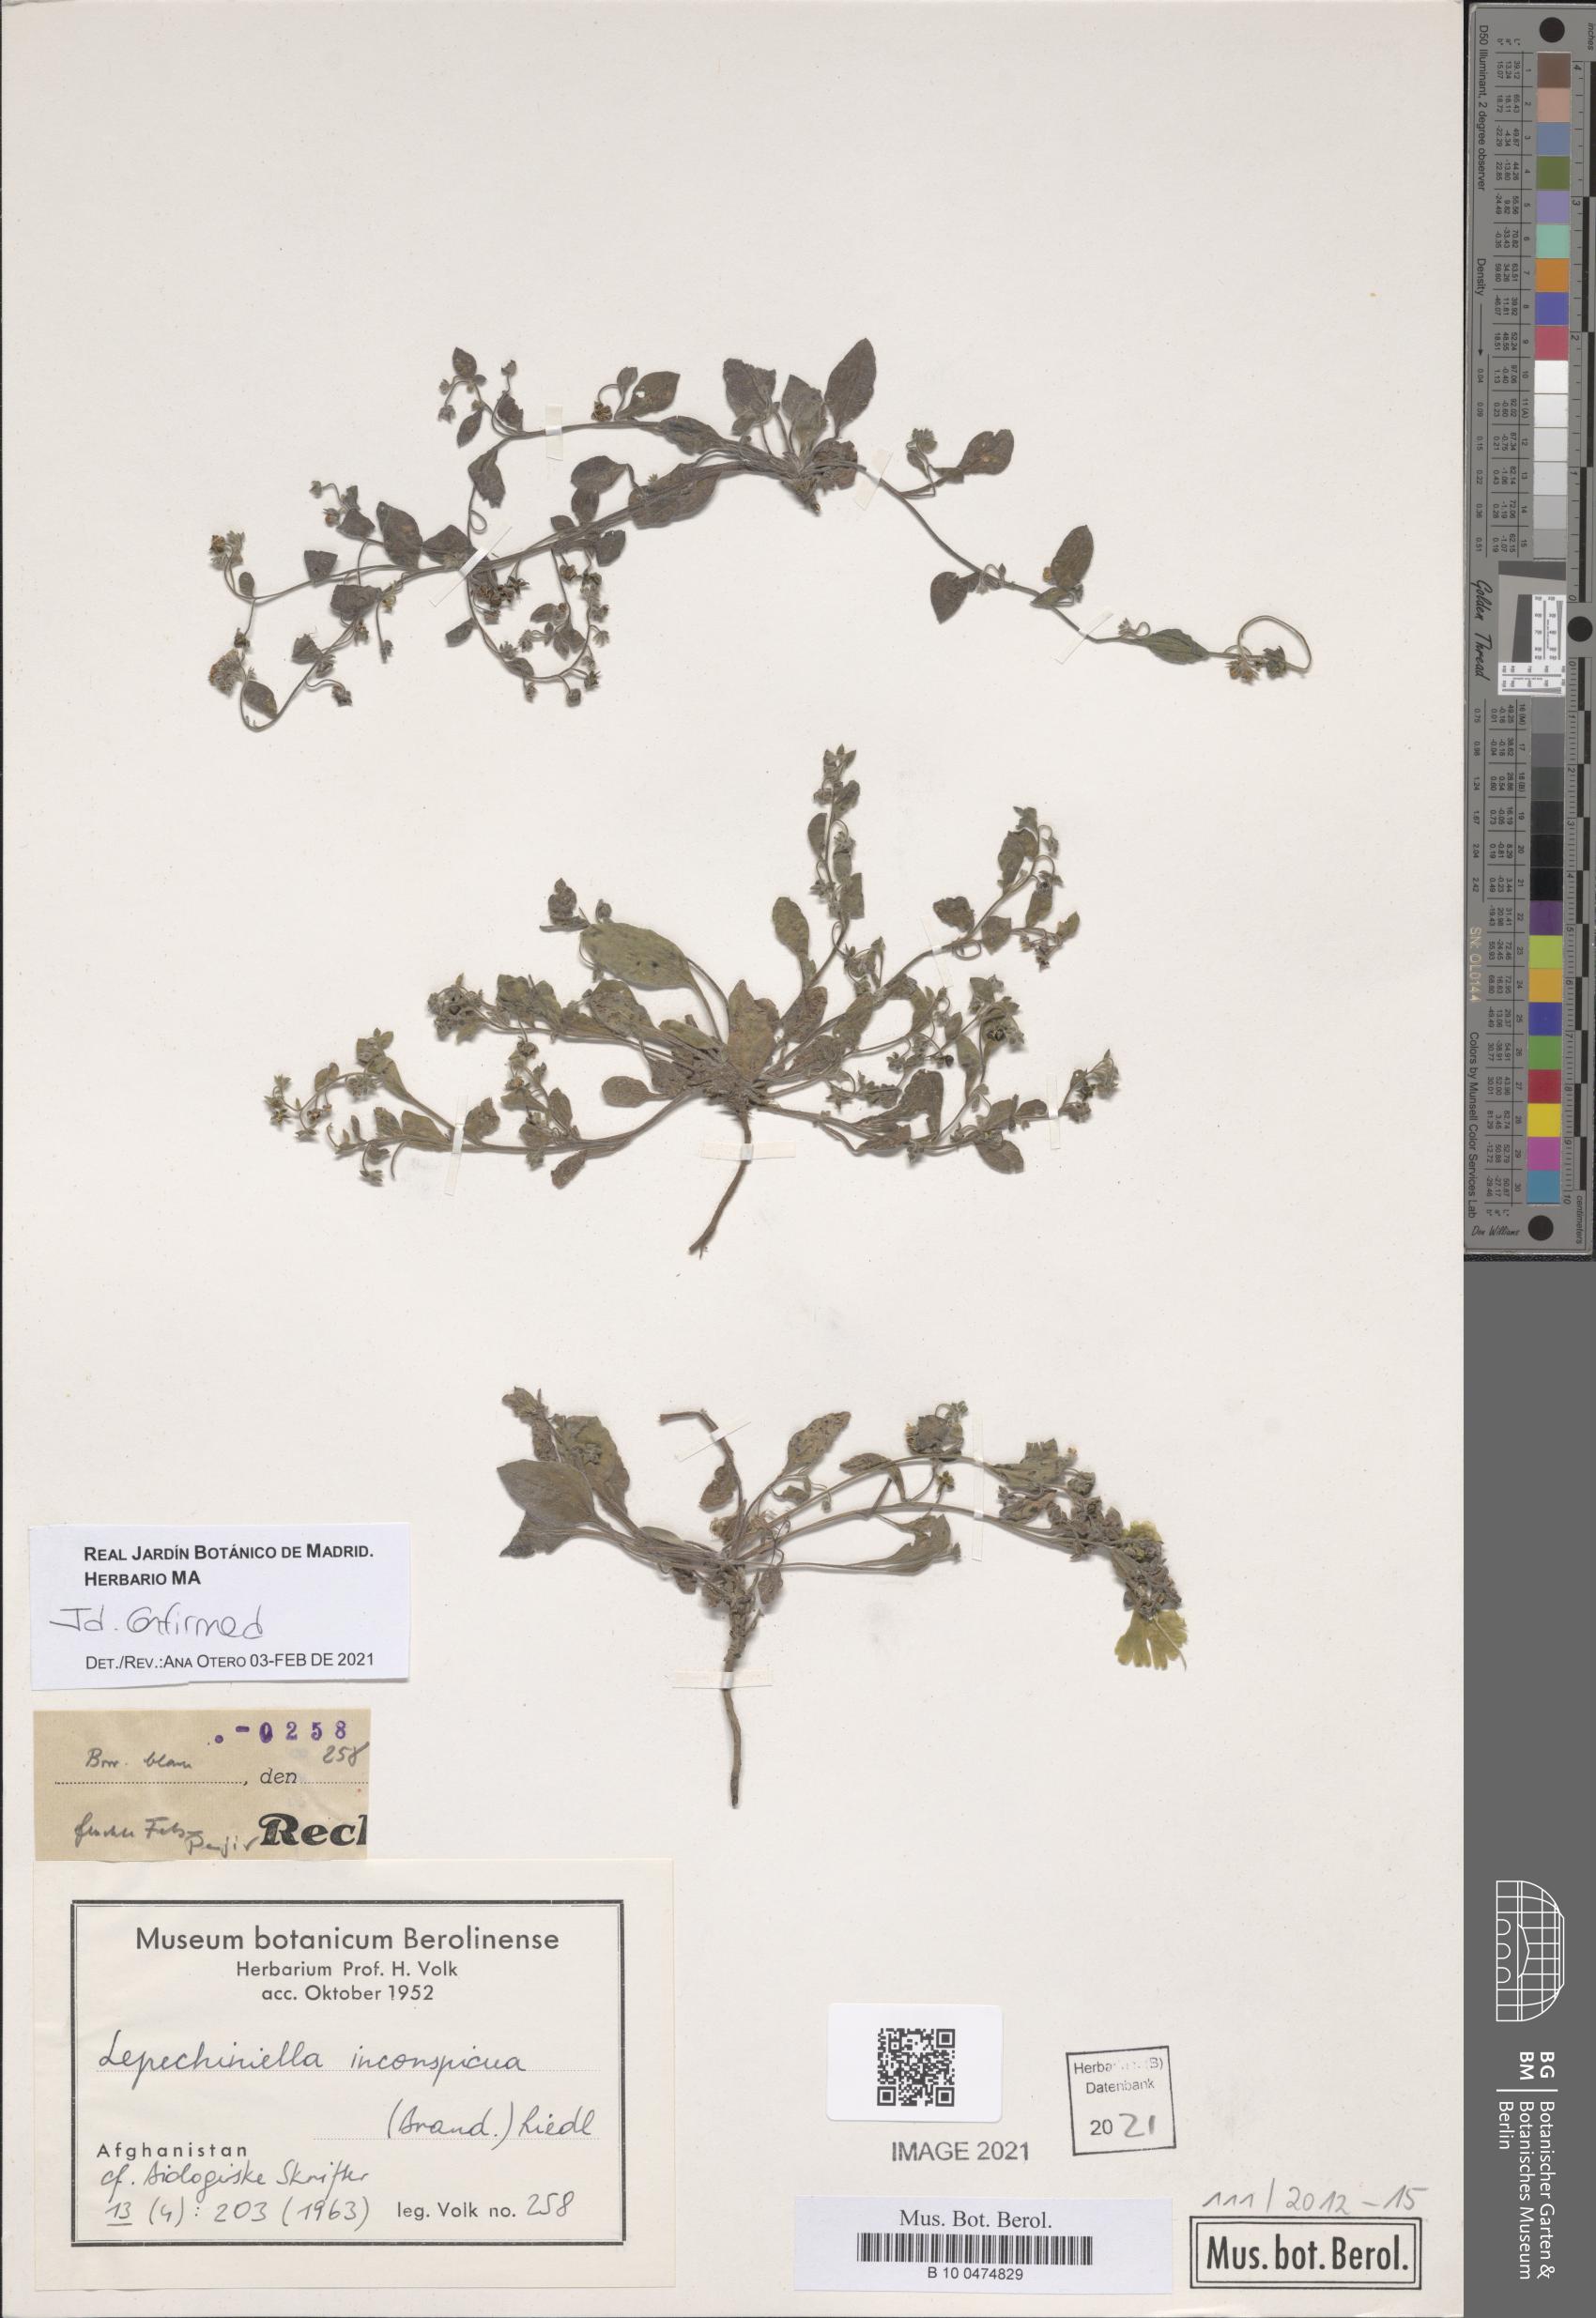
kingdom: Plantae
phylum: Tracheophyta
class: Magnoliopsida
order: Boraginales
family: Boraginaceae
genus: Lepechiniella
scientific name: Lepechiniella microcarpa
